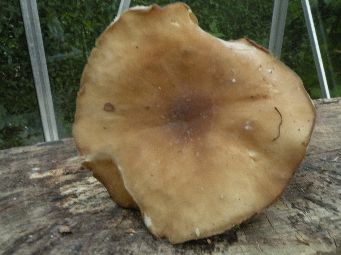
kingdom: Fungi
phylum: Basidiomycota
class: Agaricomycetes
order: Agaricales
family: Tricholomataceae
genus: Melanoleuca
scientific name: Melanoleuca
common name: munkehat
